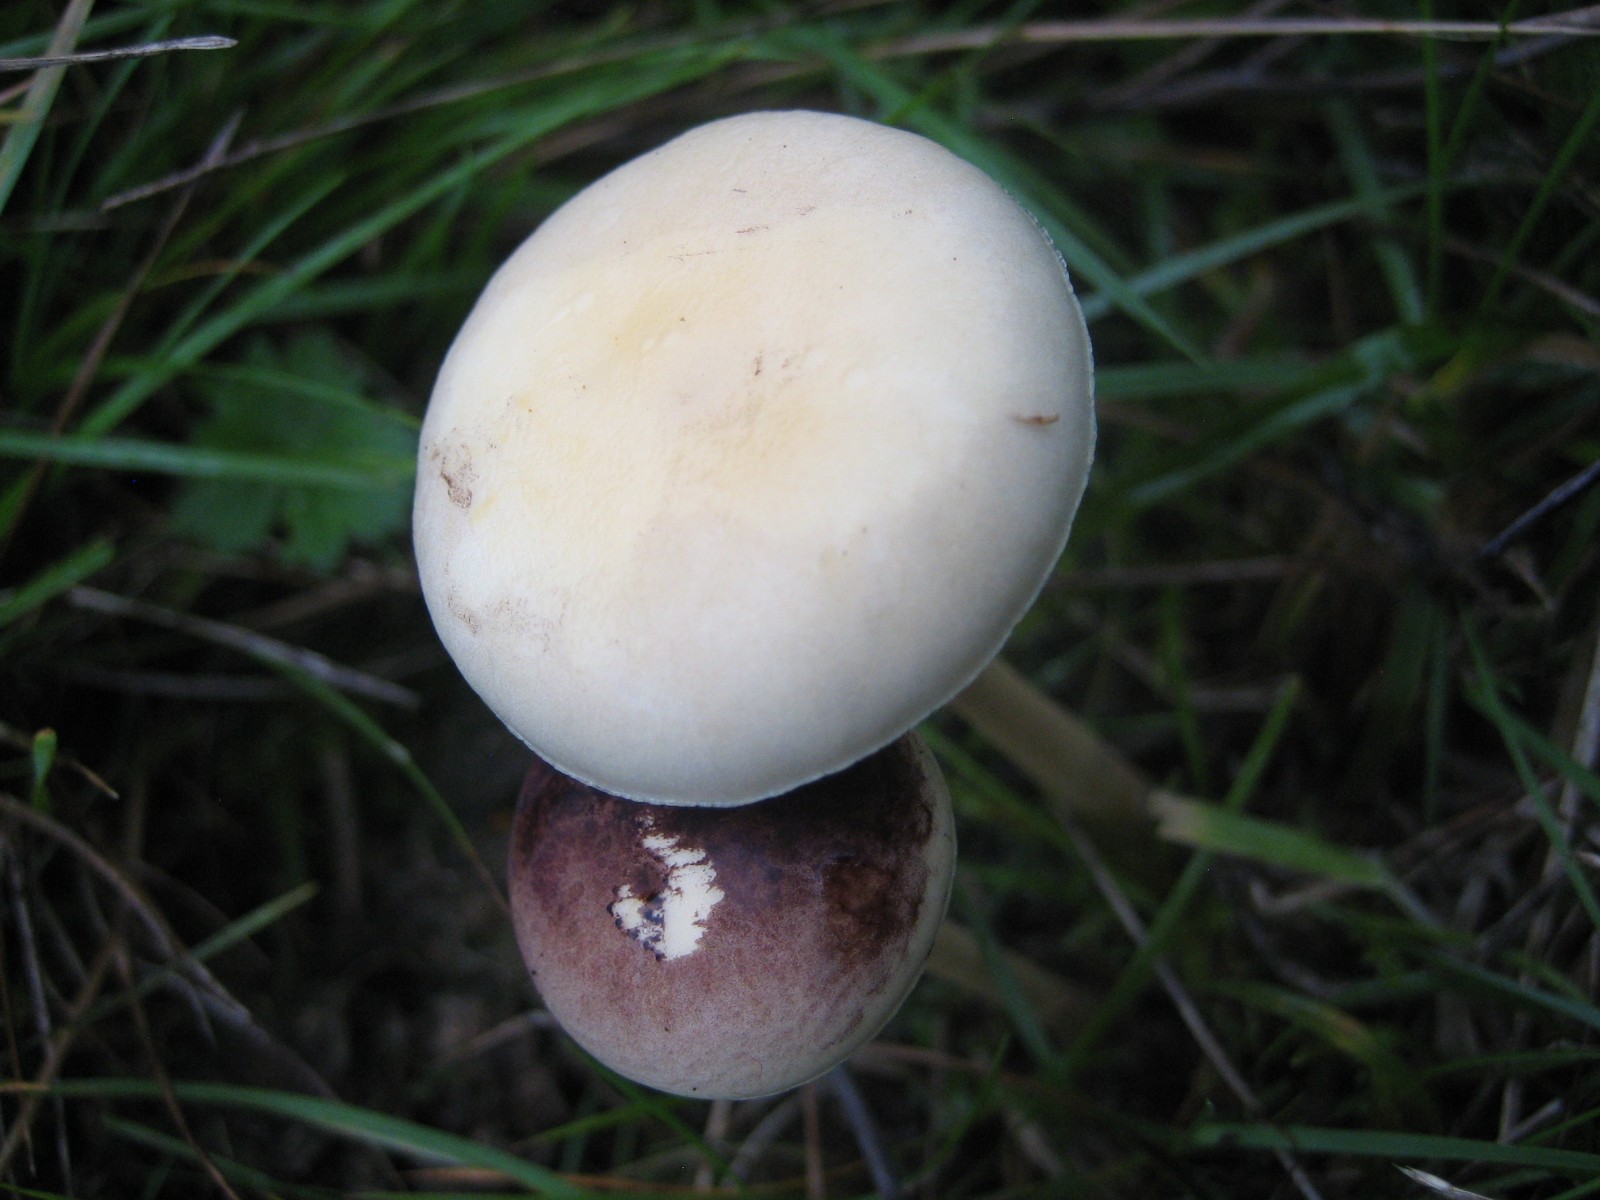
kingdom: Fungi
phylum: Basidiomycota
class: Agaricomycetes
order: Agaricales
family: Strophariaceae
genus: Protostropharia
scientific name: Protostropharia semiglobata
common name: halvkugleformet bredblad
